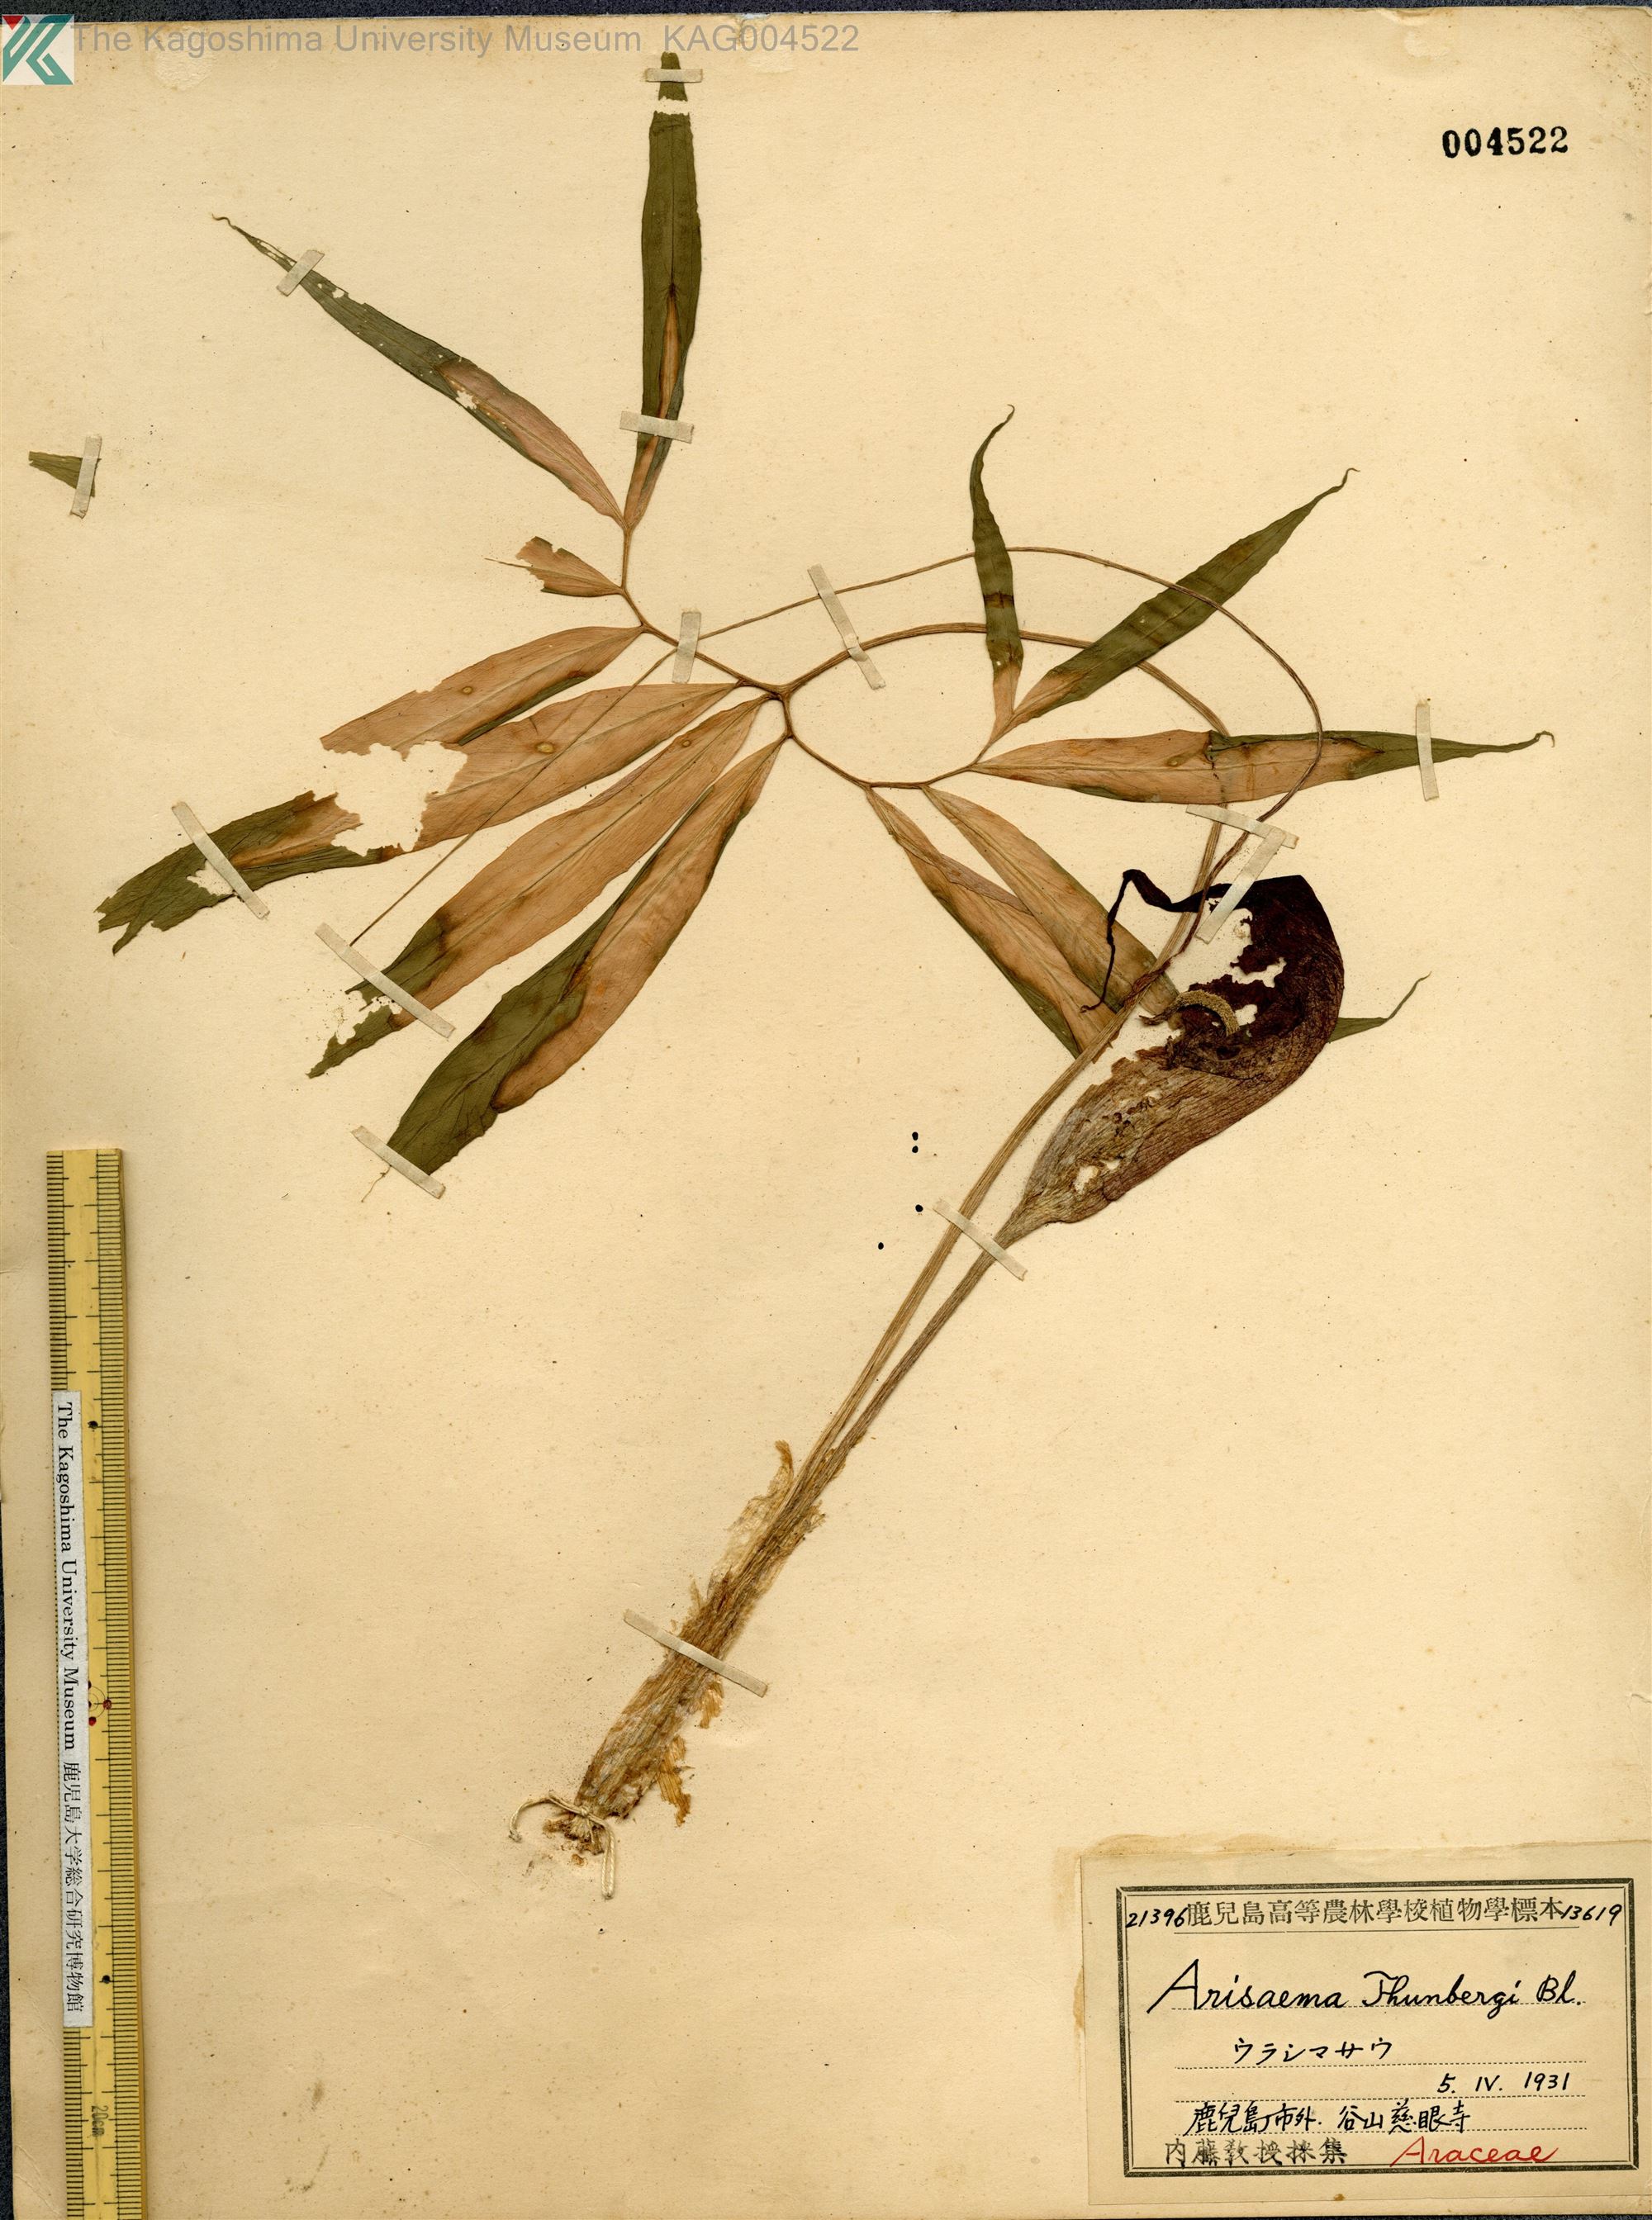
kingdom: Plantae
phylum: Tracheophyta
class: Liliopsida
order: Alismatales
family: Araceae
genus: Arisaema
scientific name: Arisaema thunbergii
